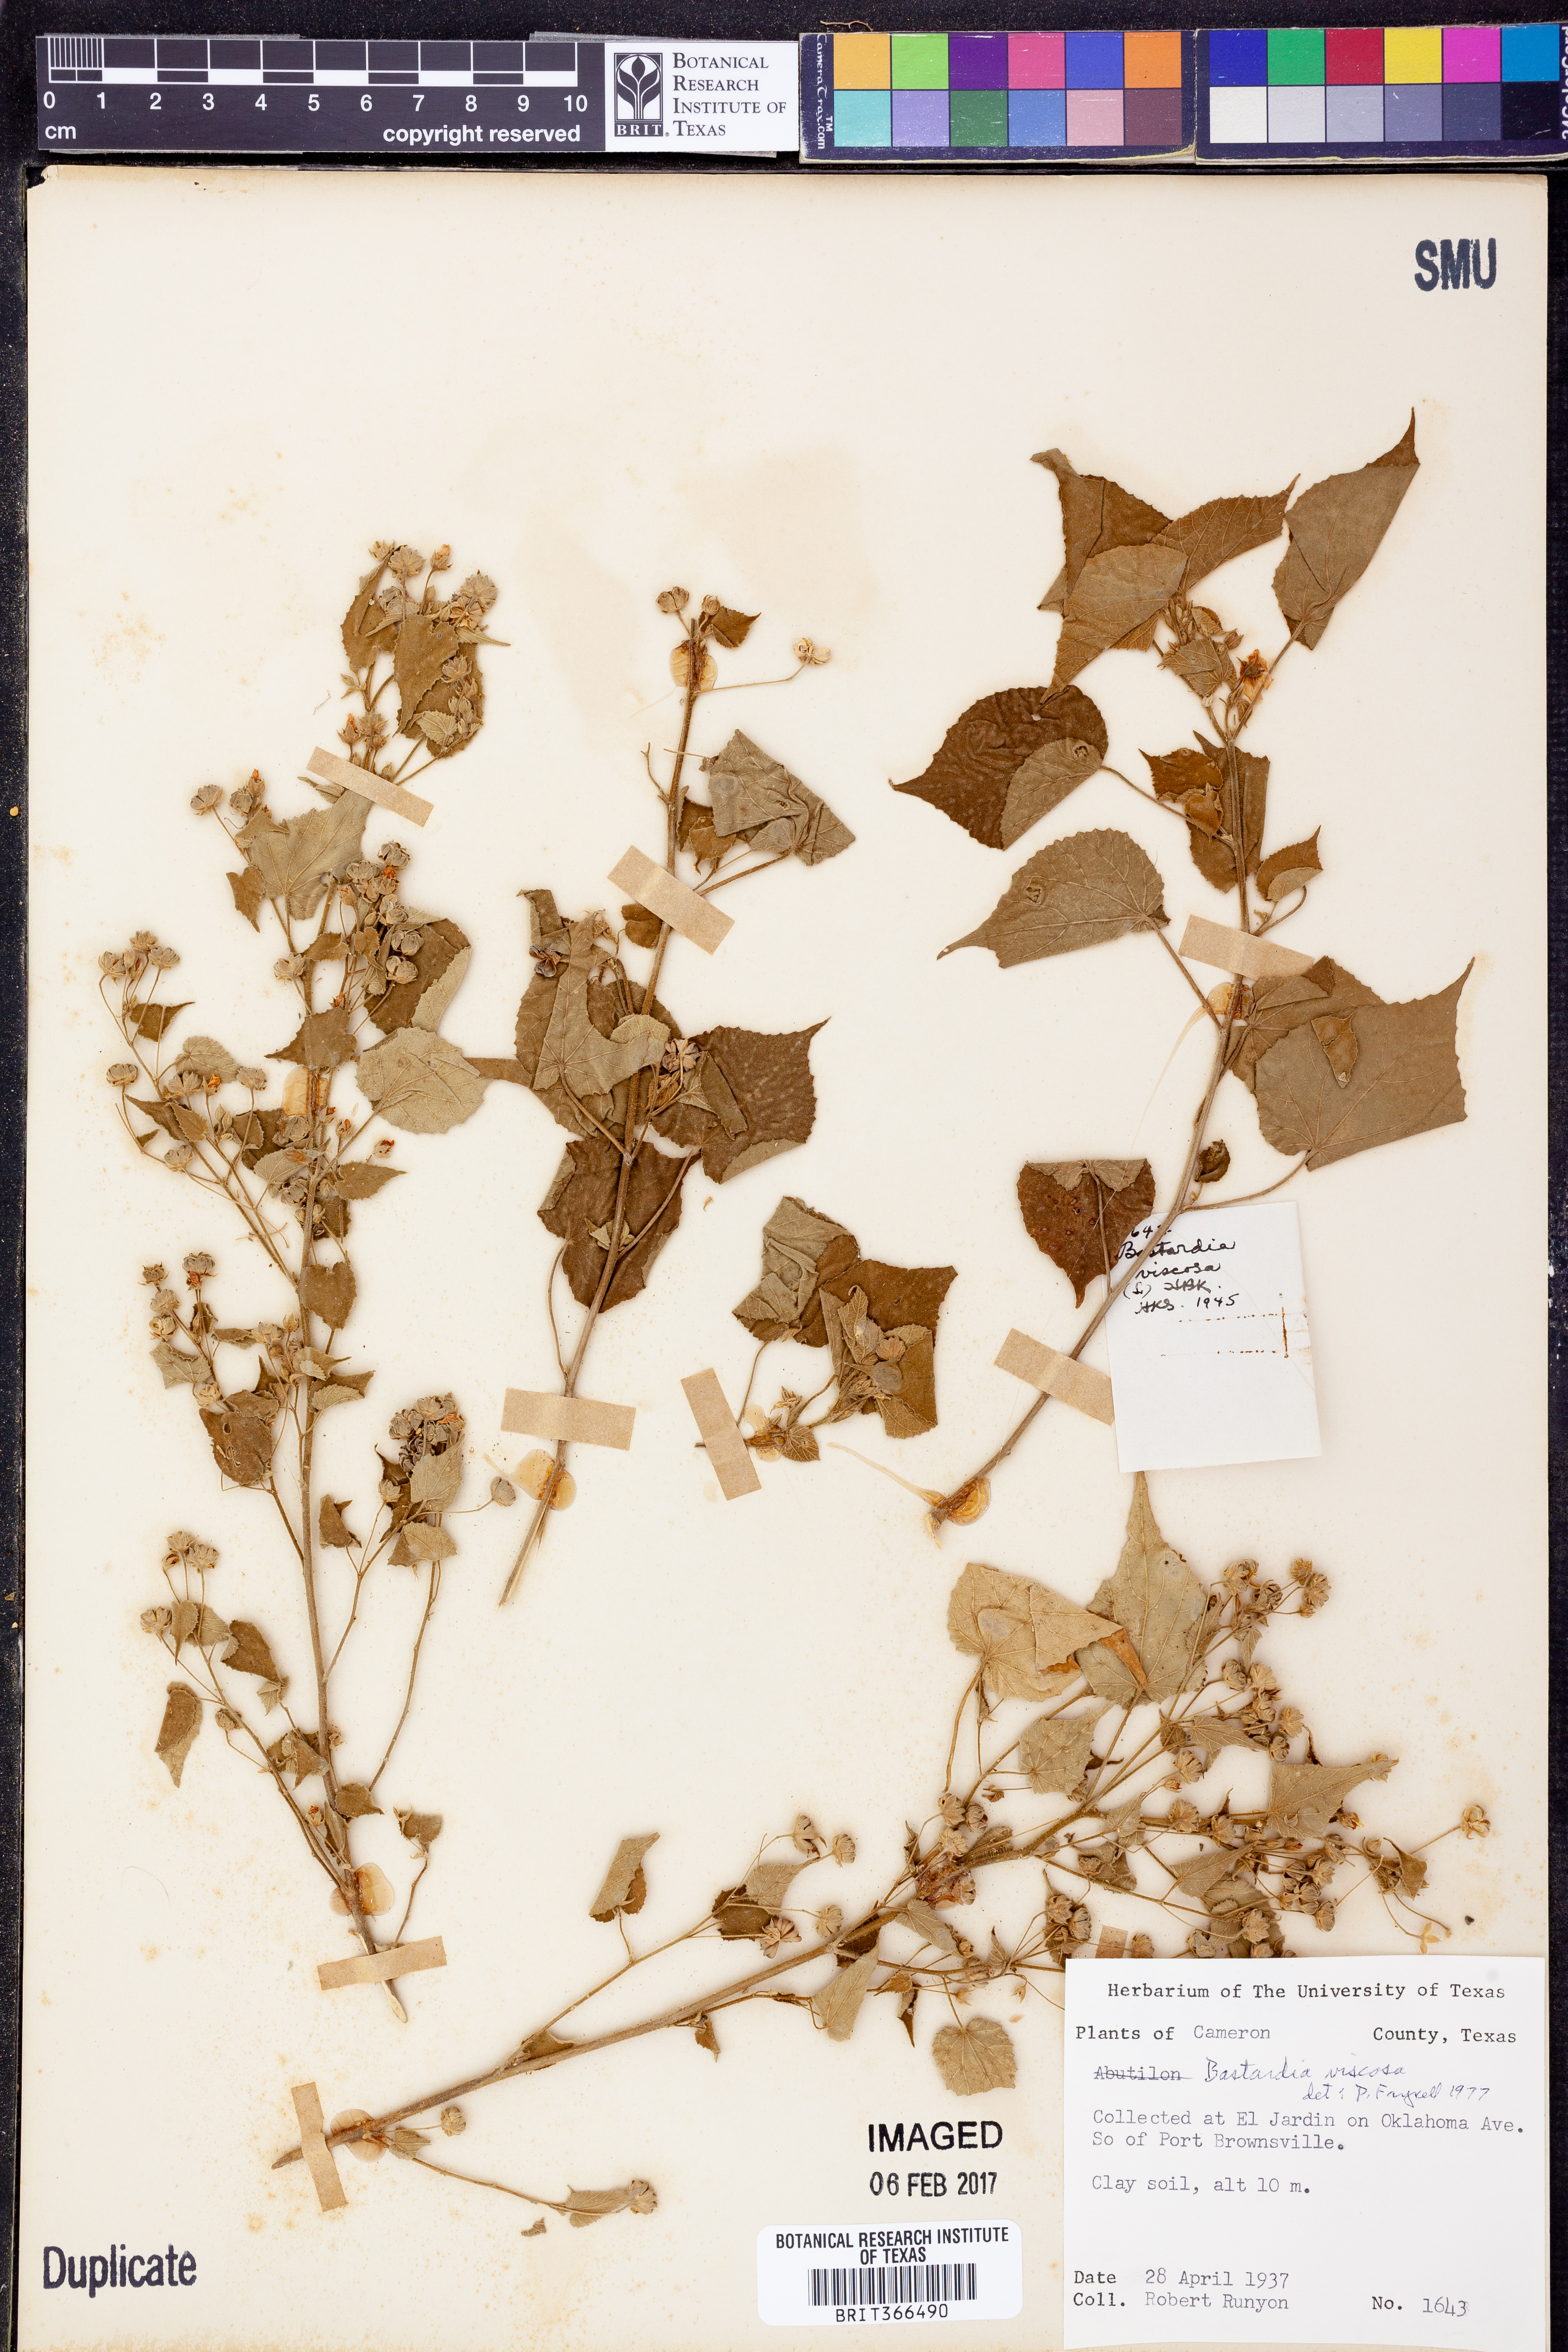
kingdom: Plantae
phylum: Tracheophyta
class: Magnoliopsida
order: Malvales
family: Malvaceae
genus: Abutilon
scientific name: Abutilon viscosum
